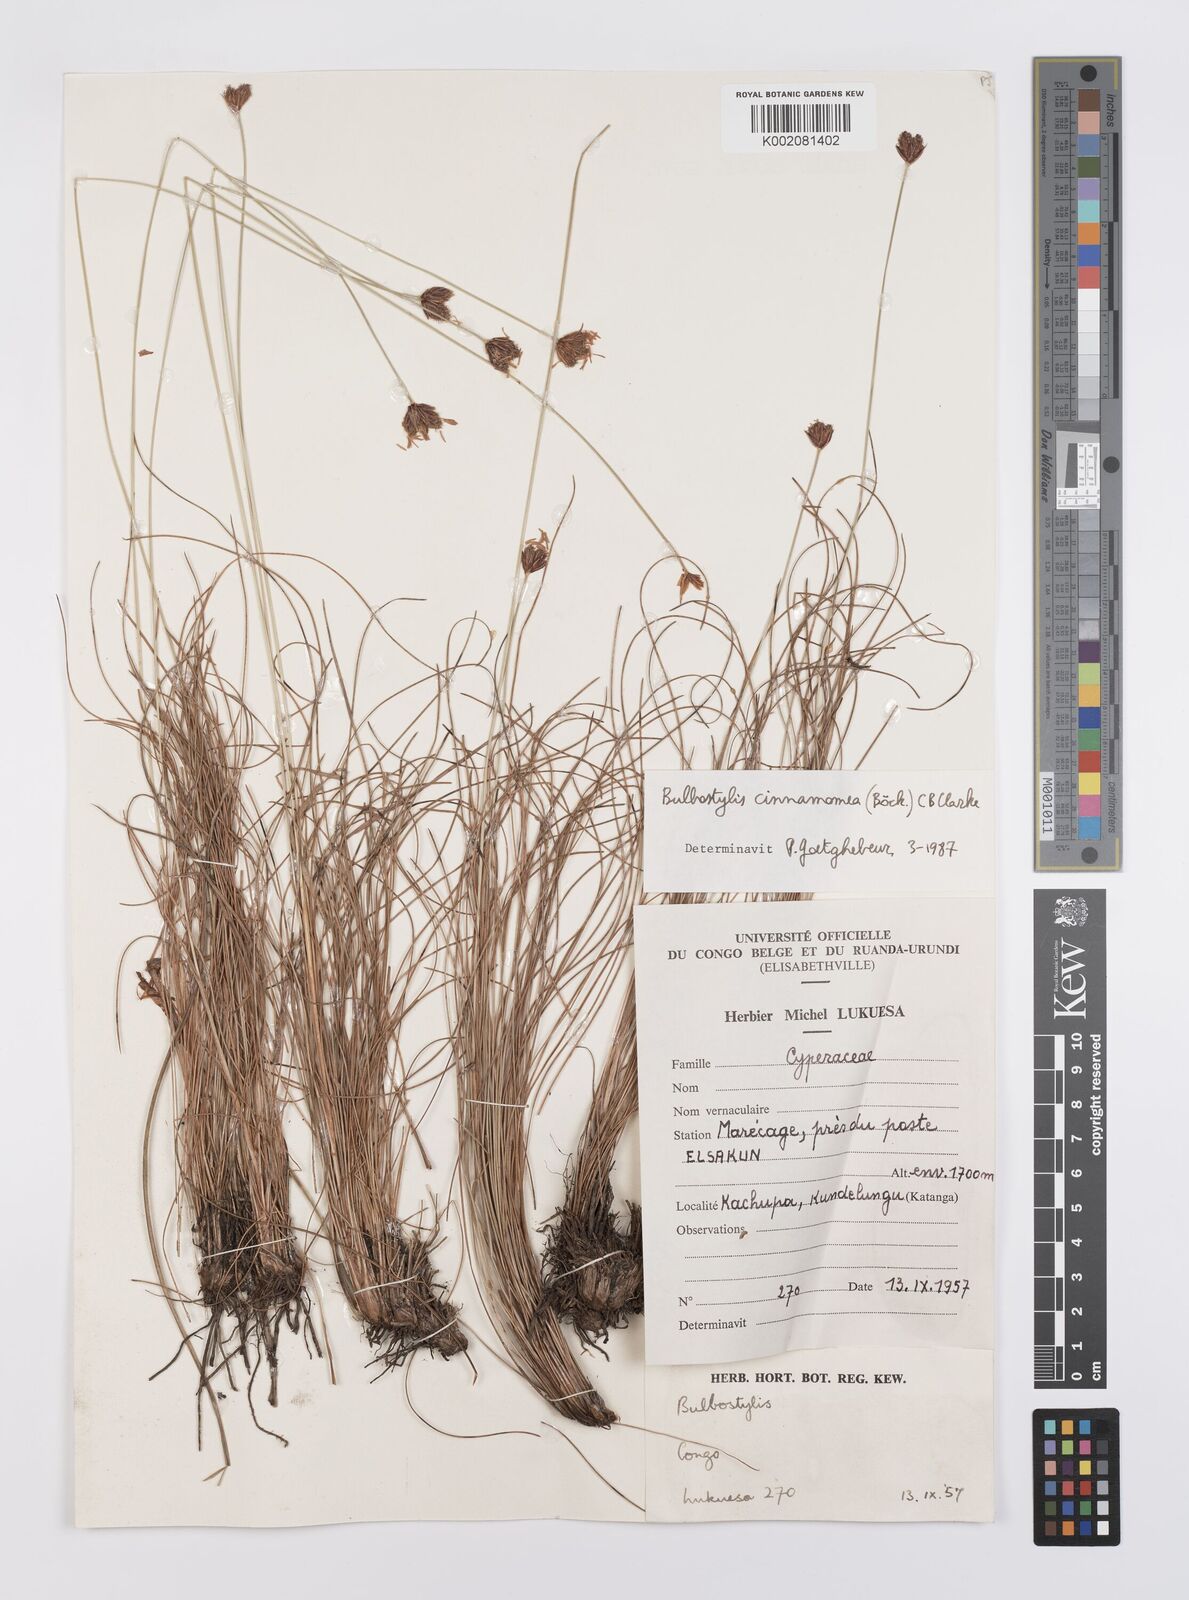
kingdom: Plantae
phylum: Tracheophyta
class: Liliopsida
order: Poales
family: Cyperaceae
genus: Bulbostylis
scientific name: Bulbostylis schoenoides
